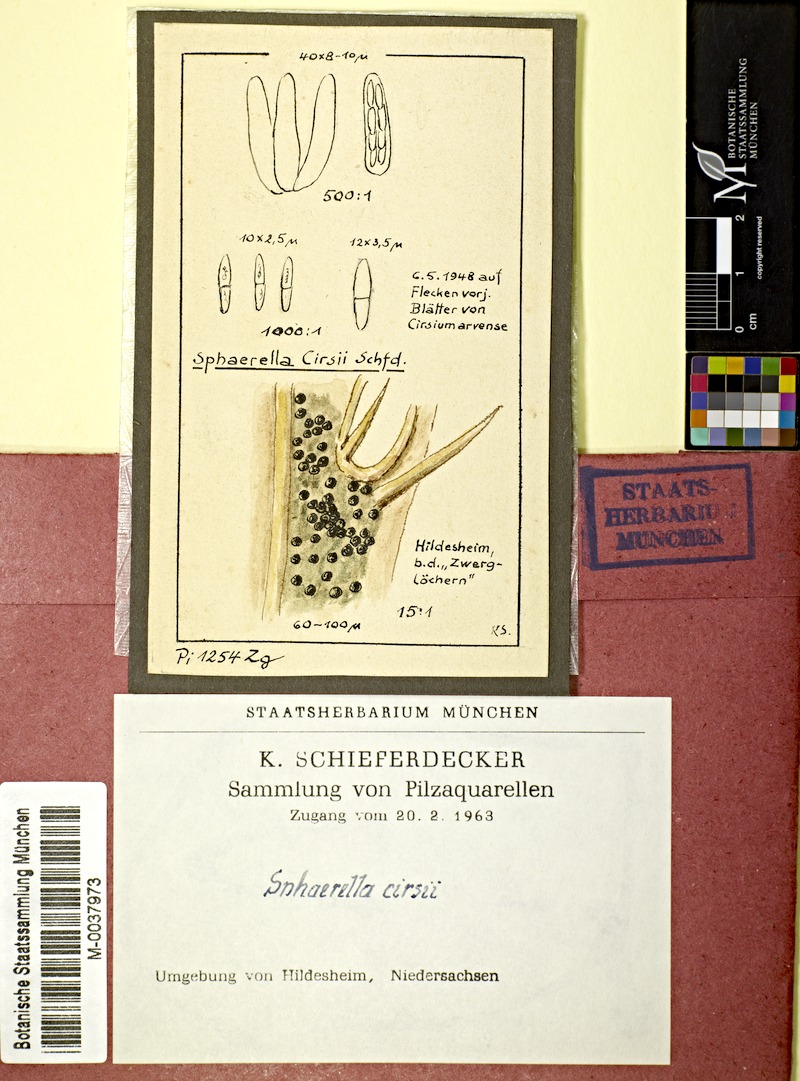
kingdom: Fungi
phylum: Ascomycota
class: Dothideomycetes
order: Mycosphaerellales
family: Mycosphaerellaceae
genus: Sphaerella
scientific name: Sphaerella
